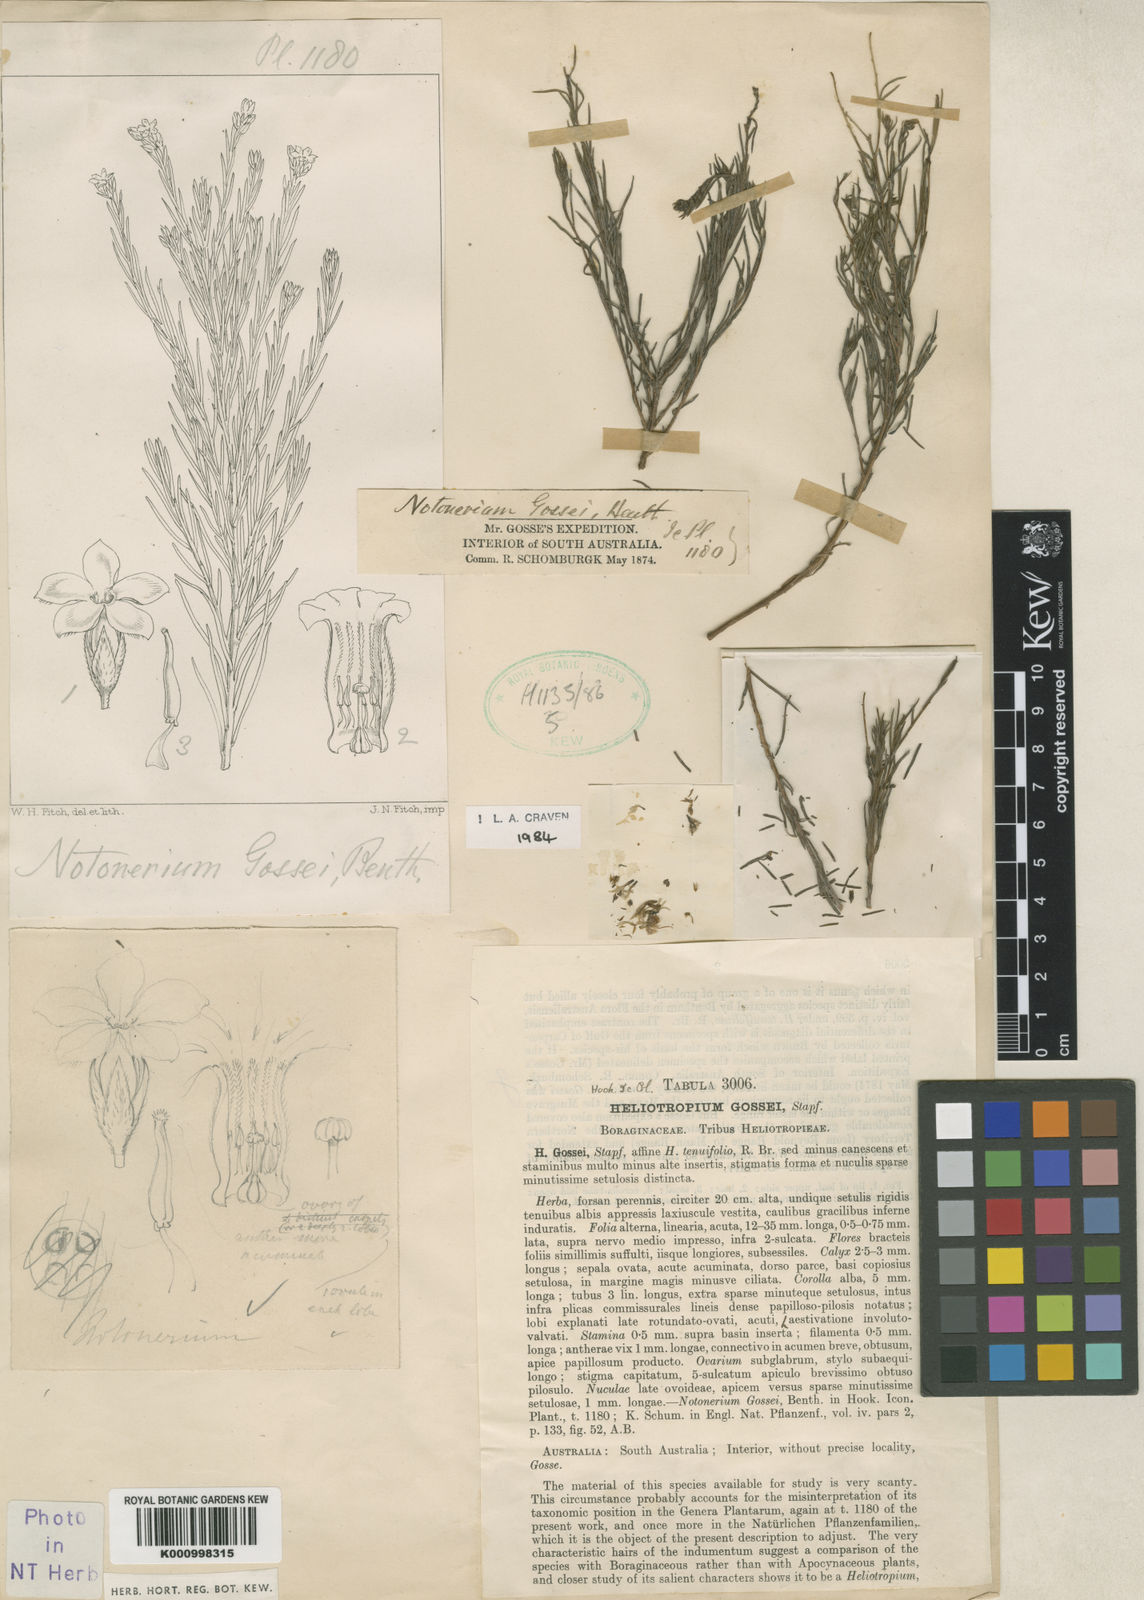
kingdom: Plantae
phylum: Tracheophyta
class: Magnoliopsida
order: Boraginales
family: Heliotropiaceae
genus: Euploca
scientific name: Euploca glabella
